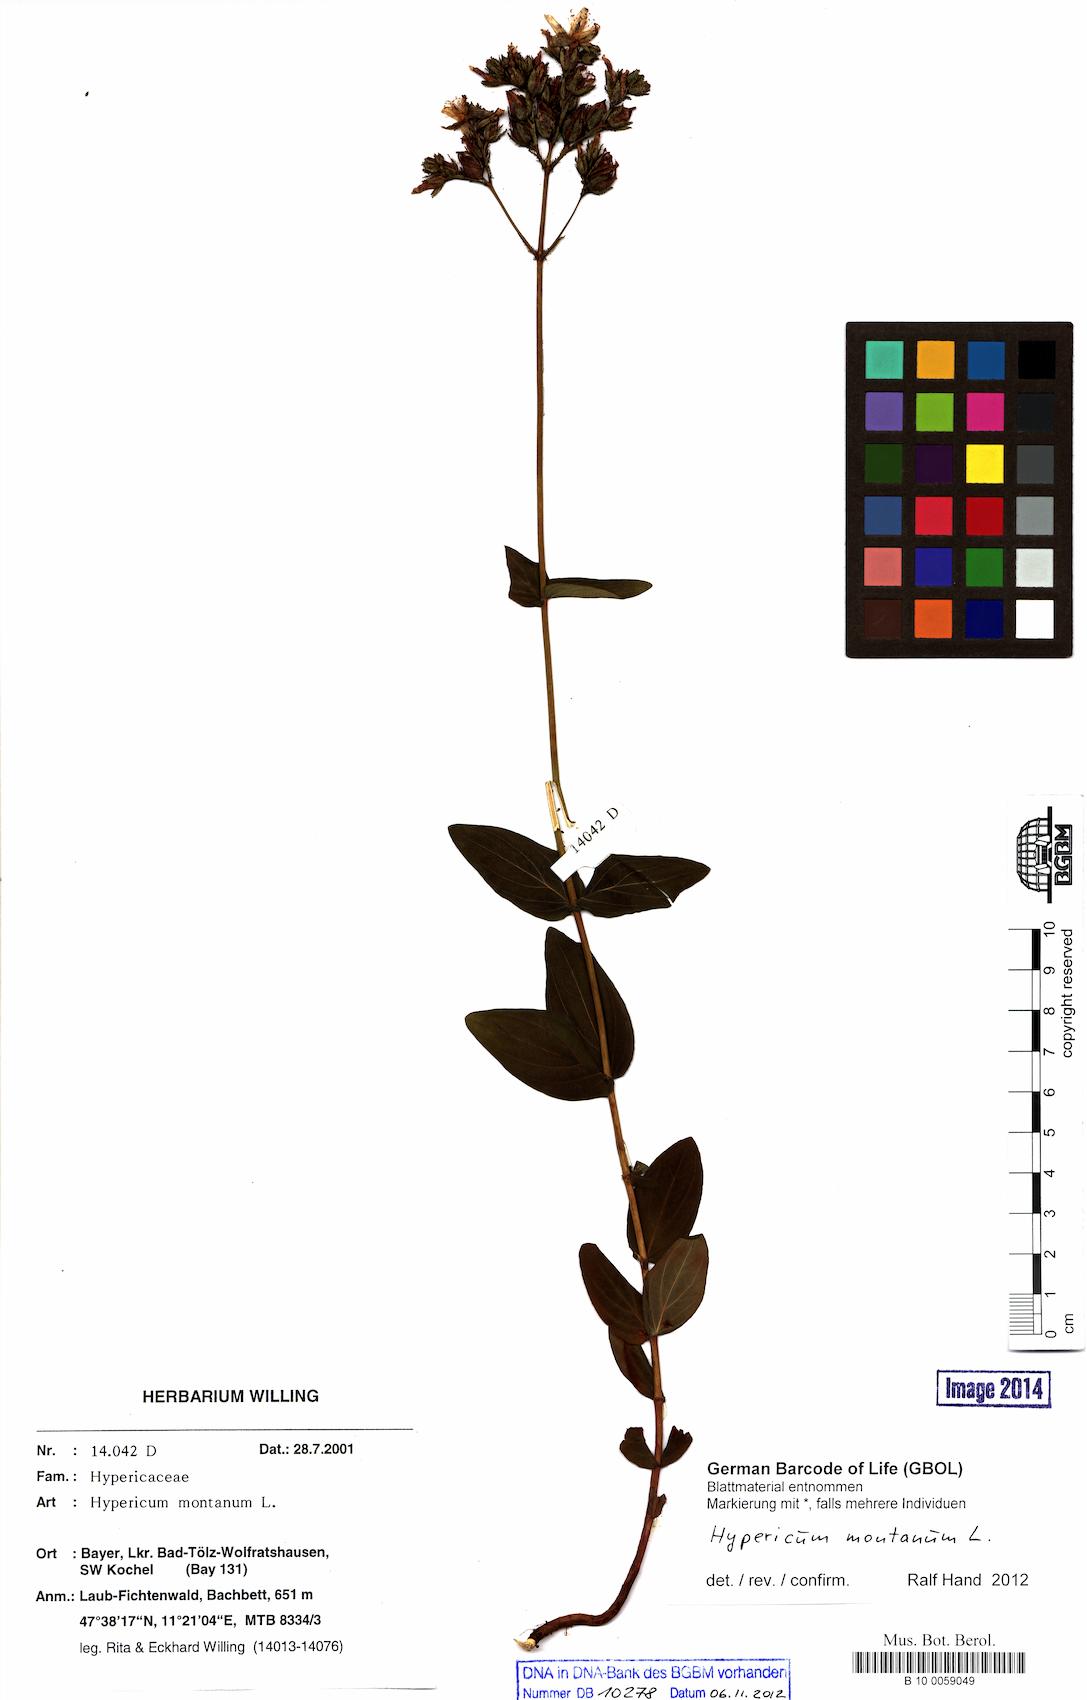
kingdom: Plantae
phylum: Tracheophyta
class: Magnoliopsida
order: Malpighiales
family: Hypericaceae
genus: Hypericum
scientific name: Hypericum montanum
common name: Pale st. john's-wort
